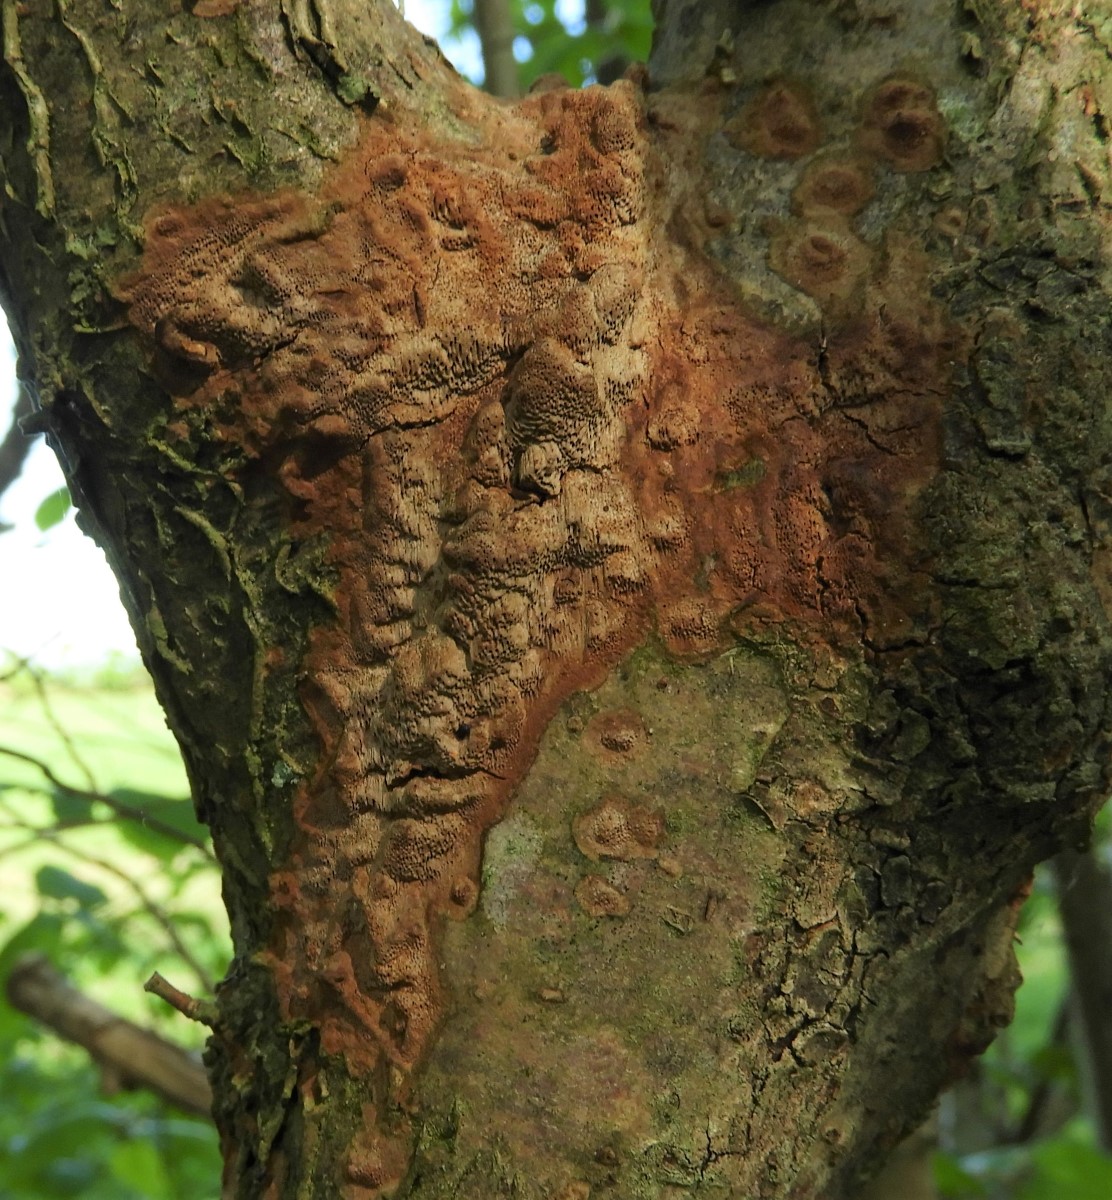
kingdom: Fungi
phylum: Basidiomycota
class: Agaricomycetes
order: Hymenochaetales
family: Hymenochaetaceae
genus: Fuscoporia
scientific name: Fuscoporia
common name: Ildporesvamp
